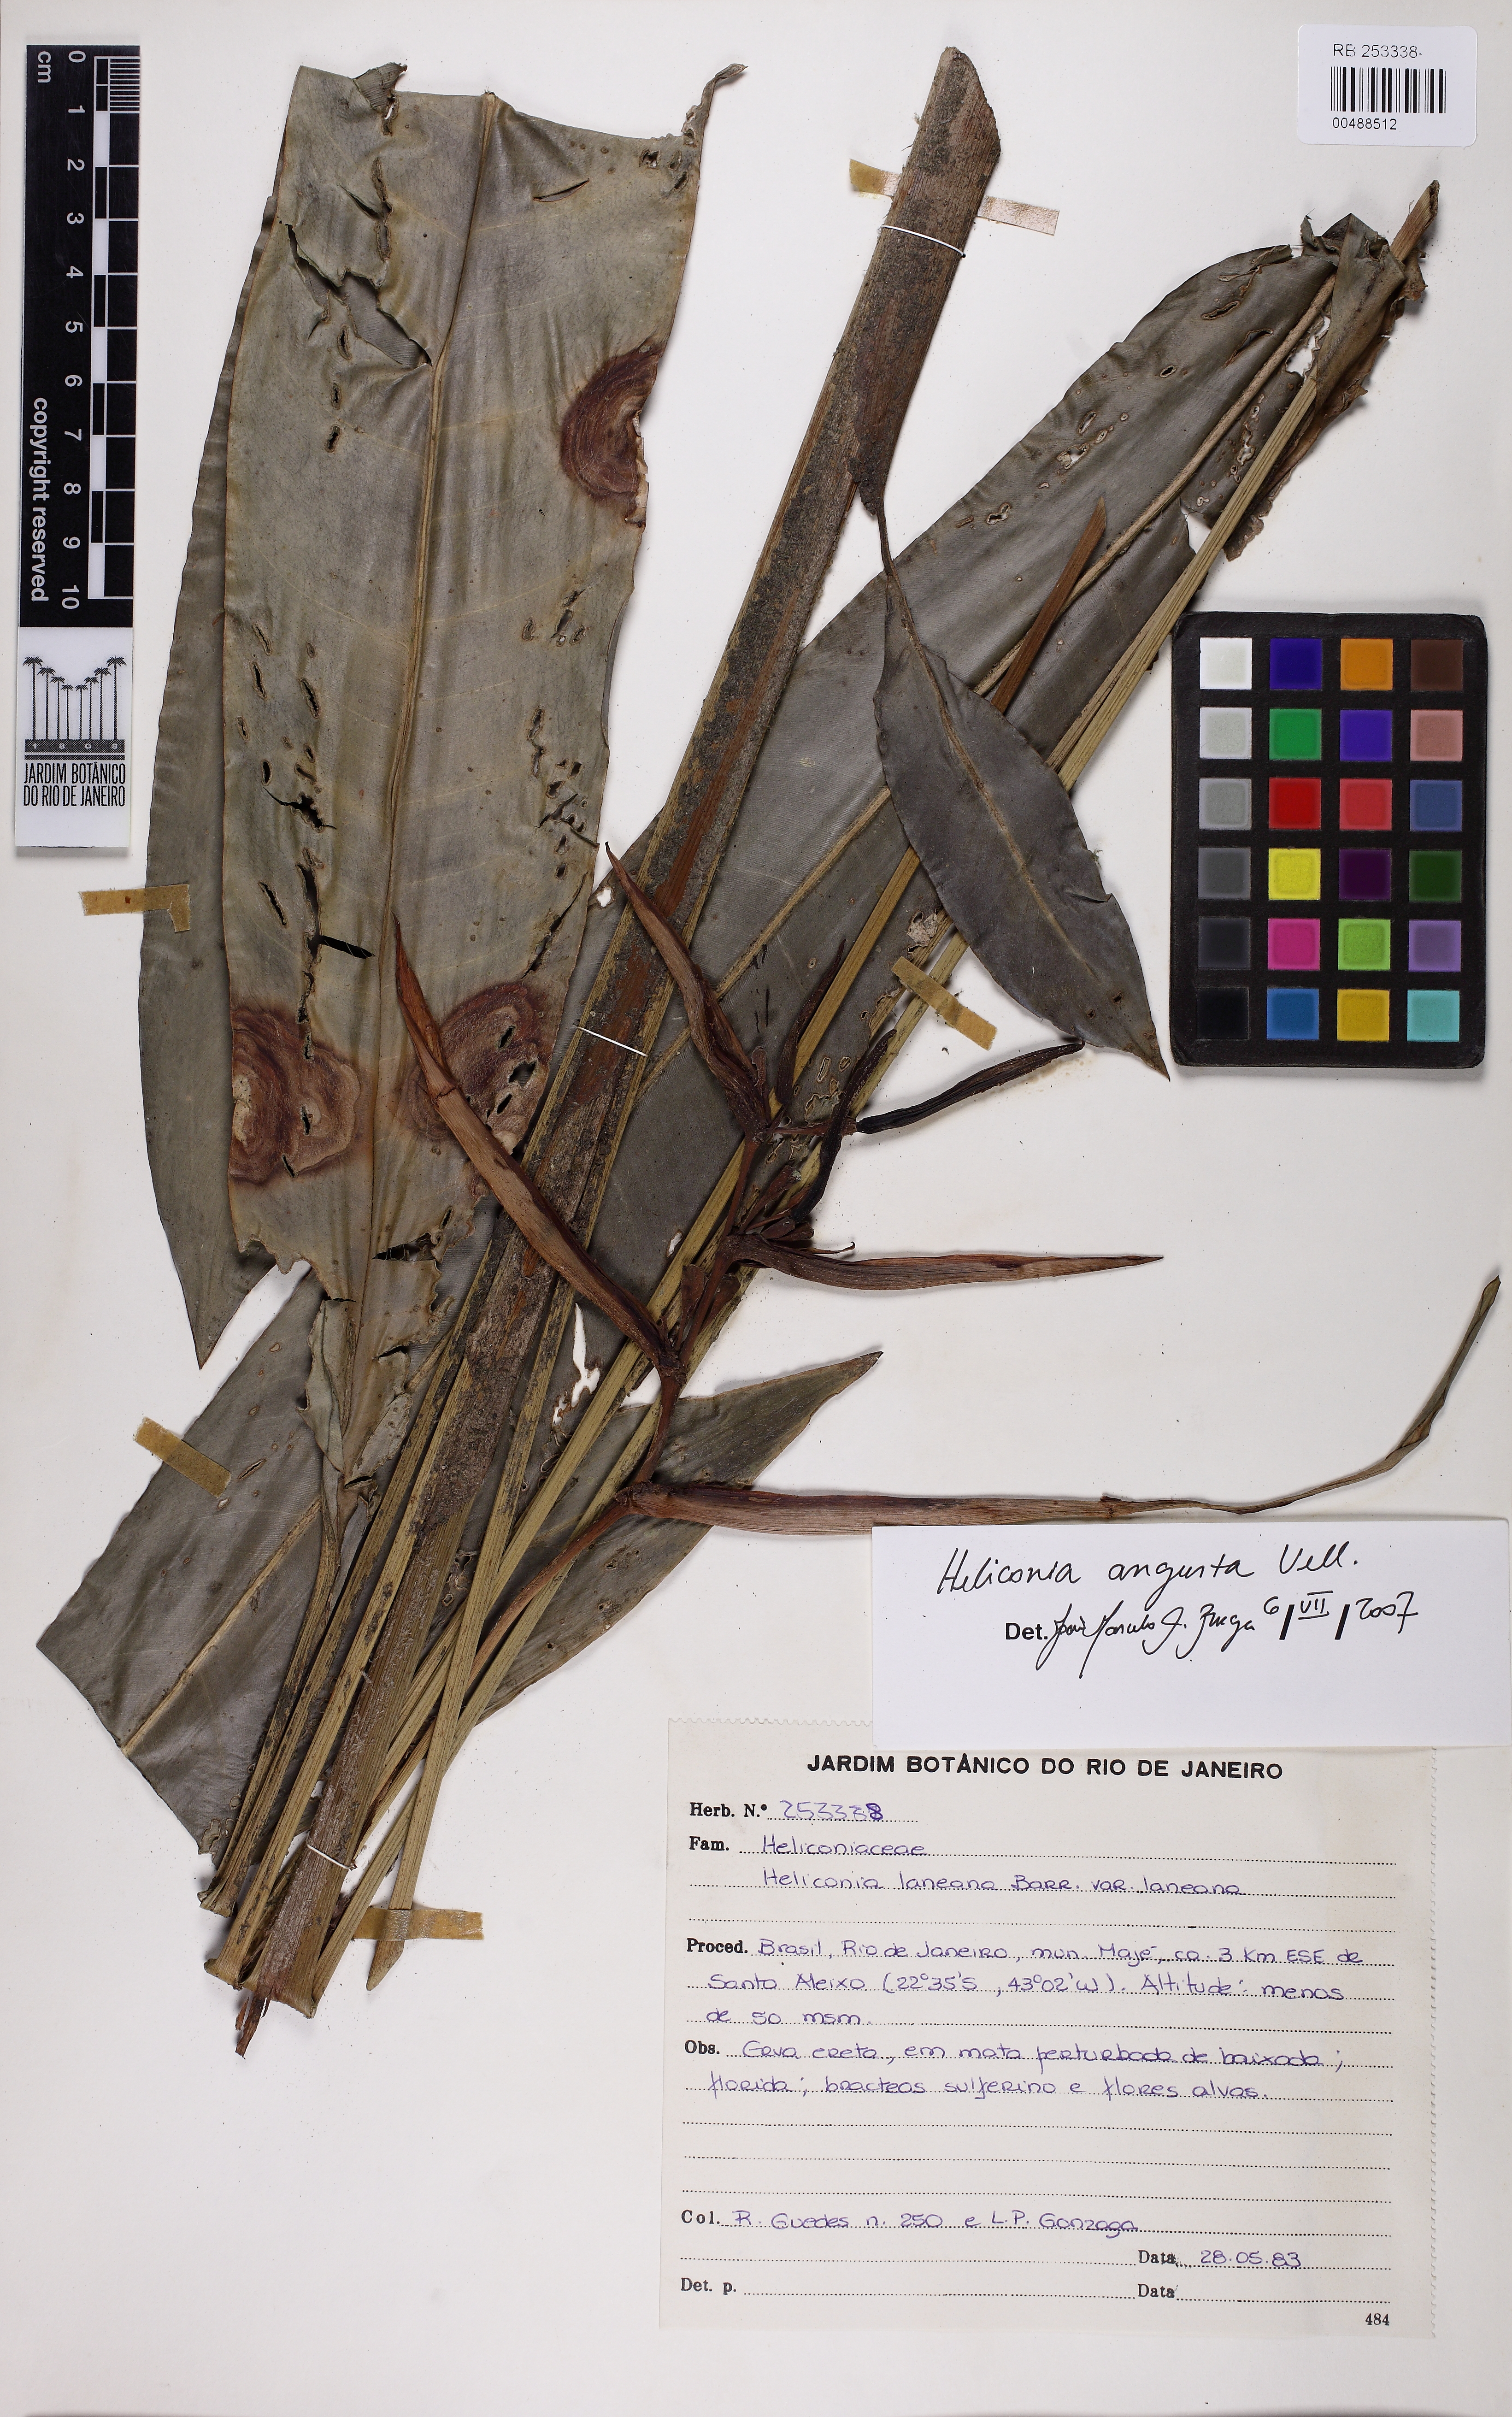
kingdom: Plantae
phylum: Tracheophyta
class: Liliopsida
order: Zingiberales
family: Heliconiaceae
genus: Heliconia
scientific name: Heliconia angusta
